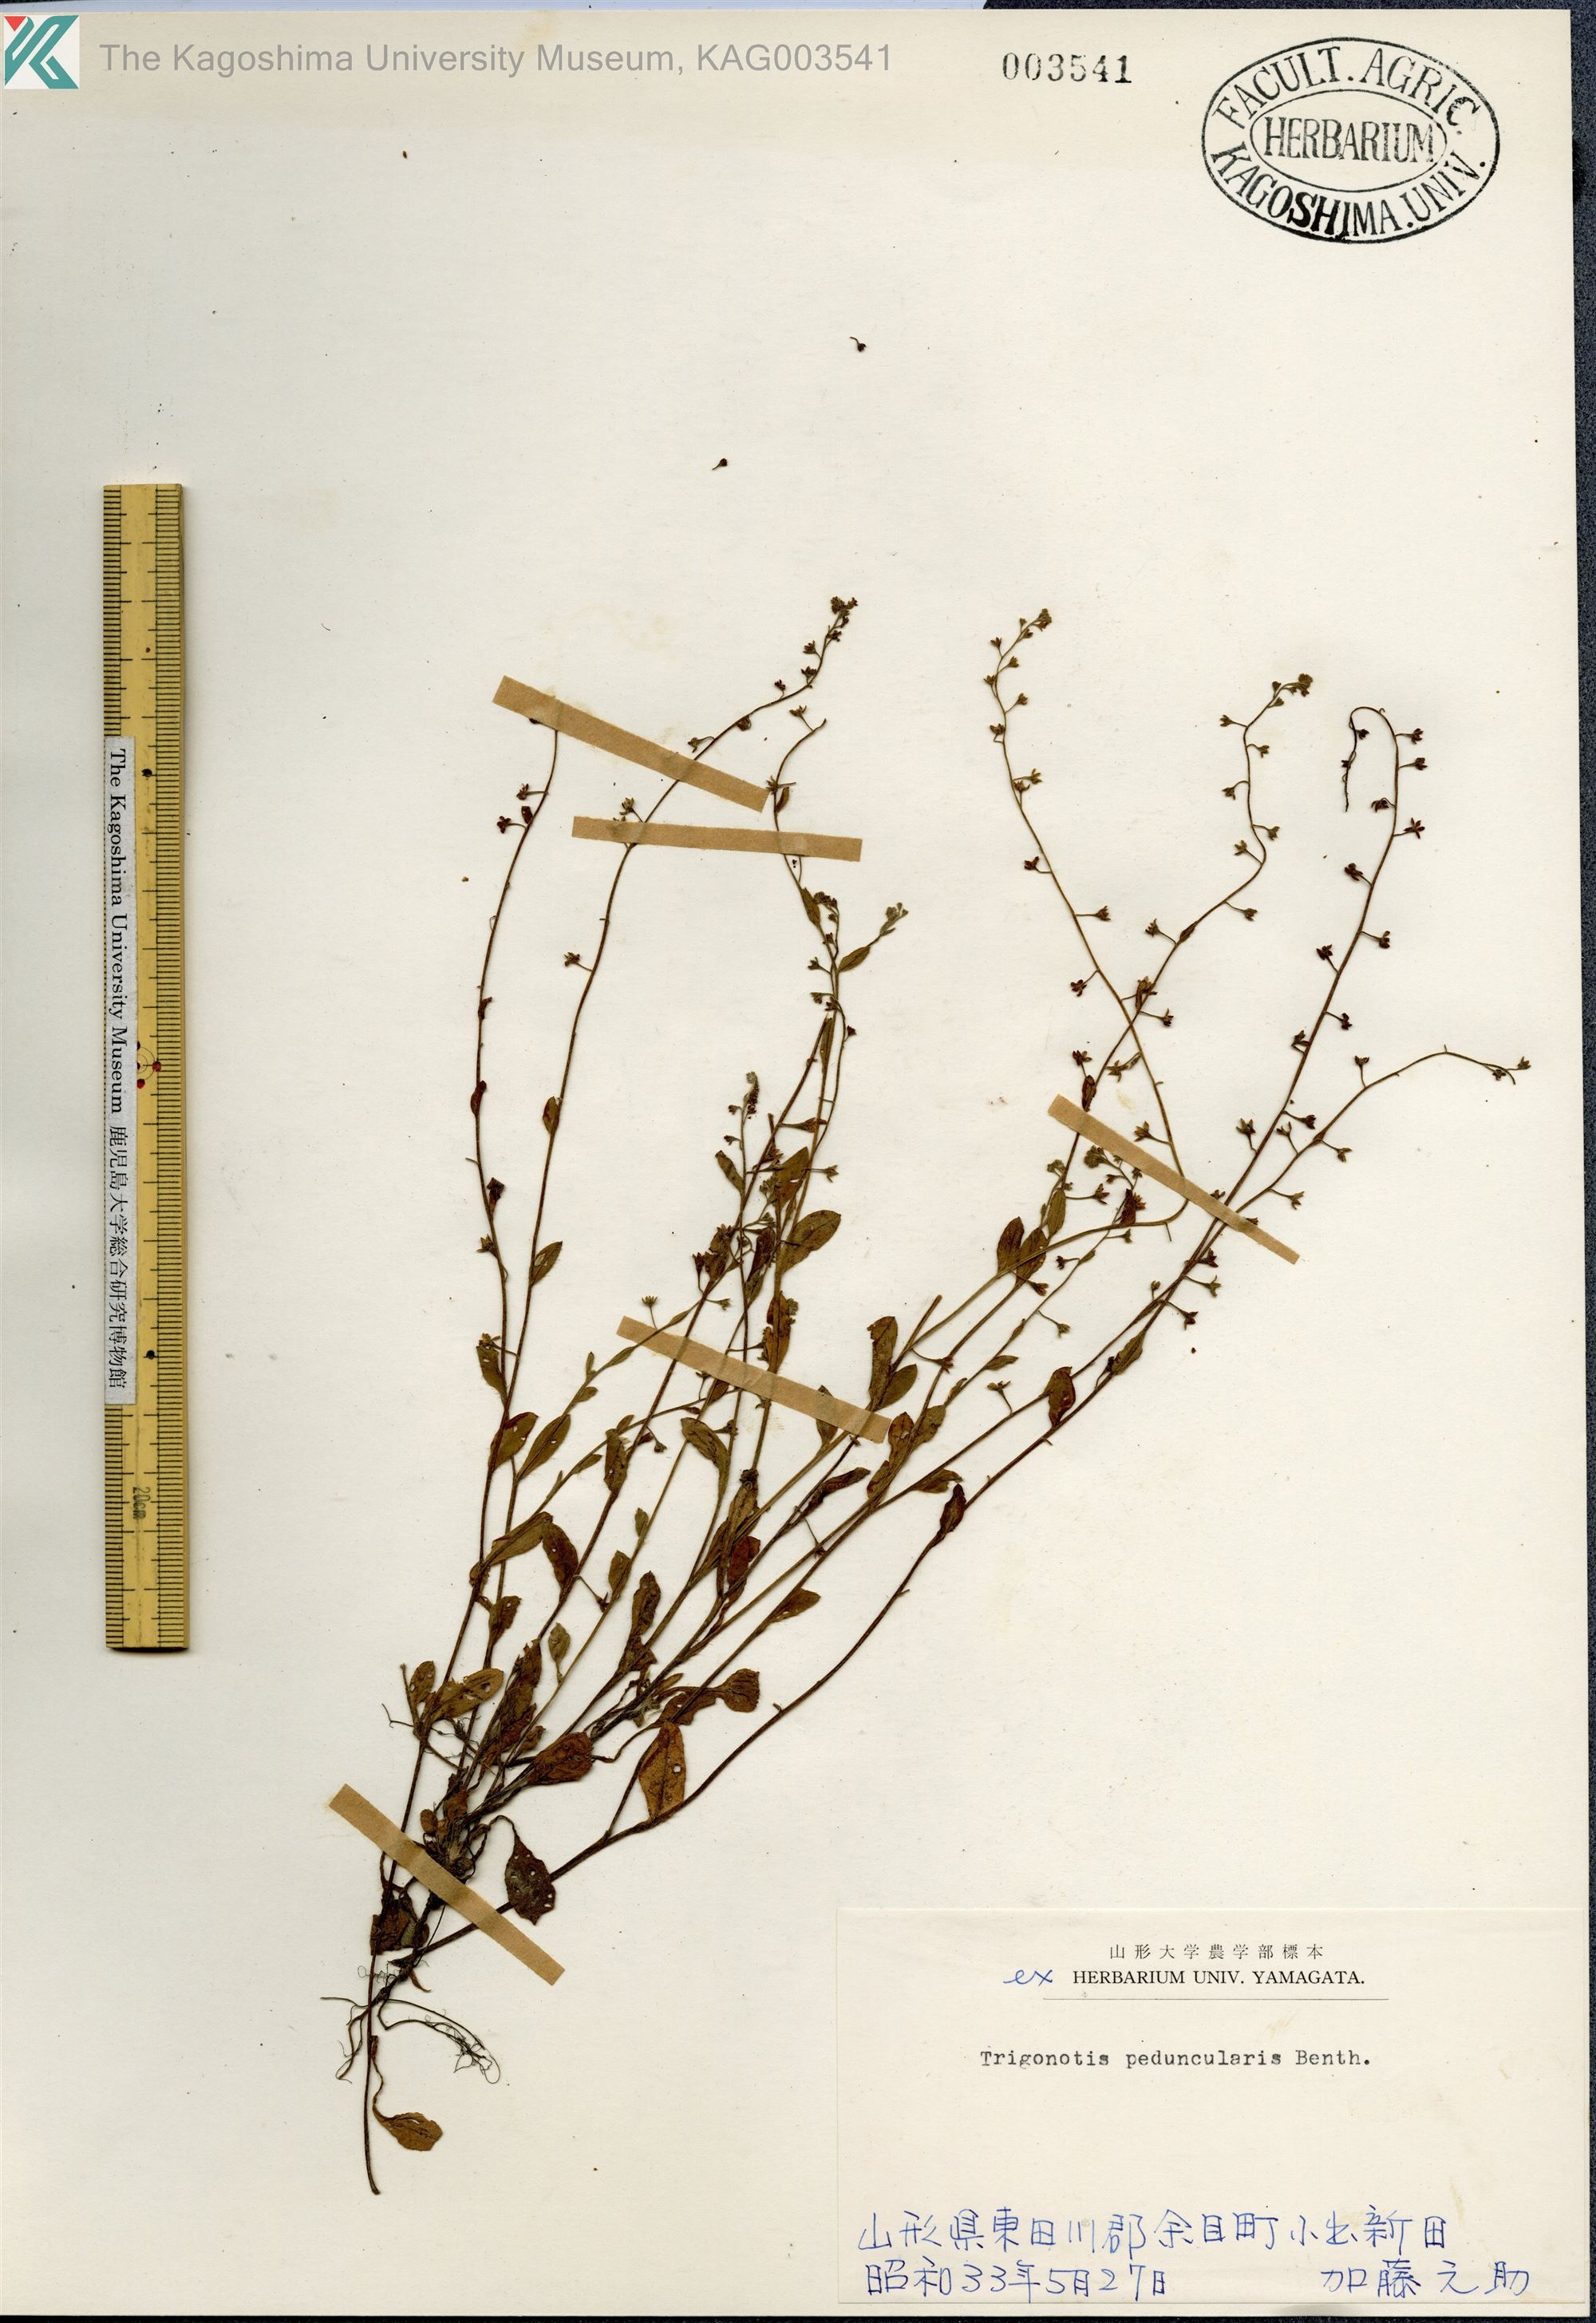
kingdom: Plantae
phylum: Tracheophyta
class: Magnoliopsida
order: Boraginales
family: Boraginaceae
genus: Trigonotis
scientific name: Trigonotis peduncularis
